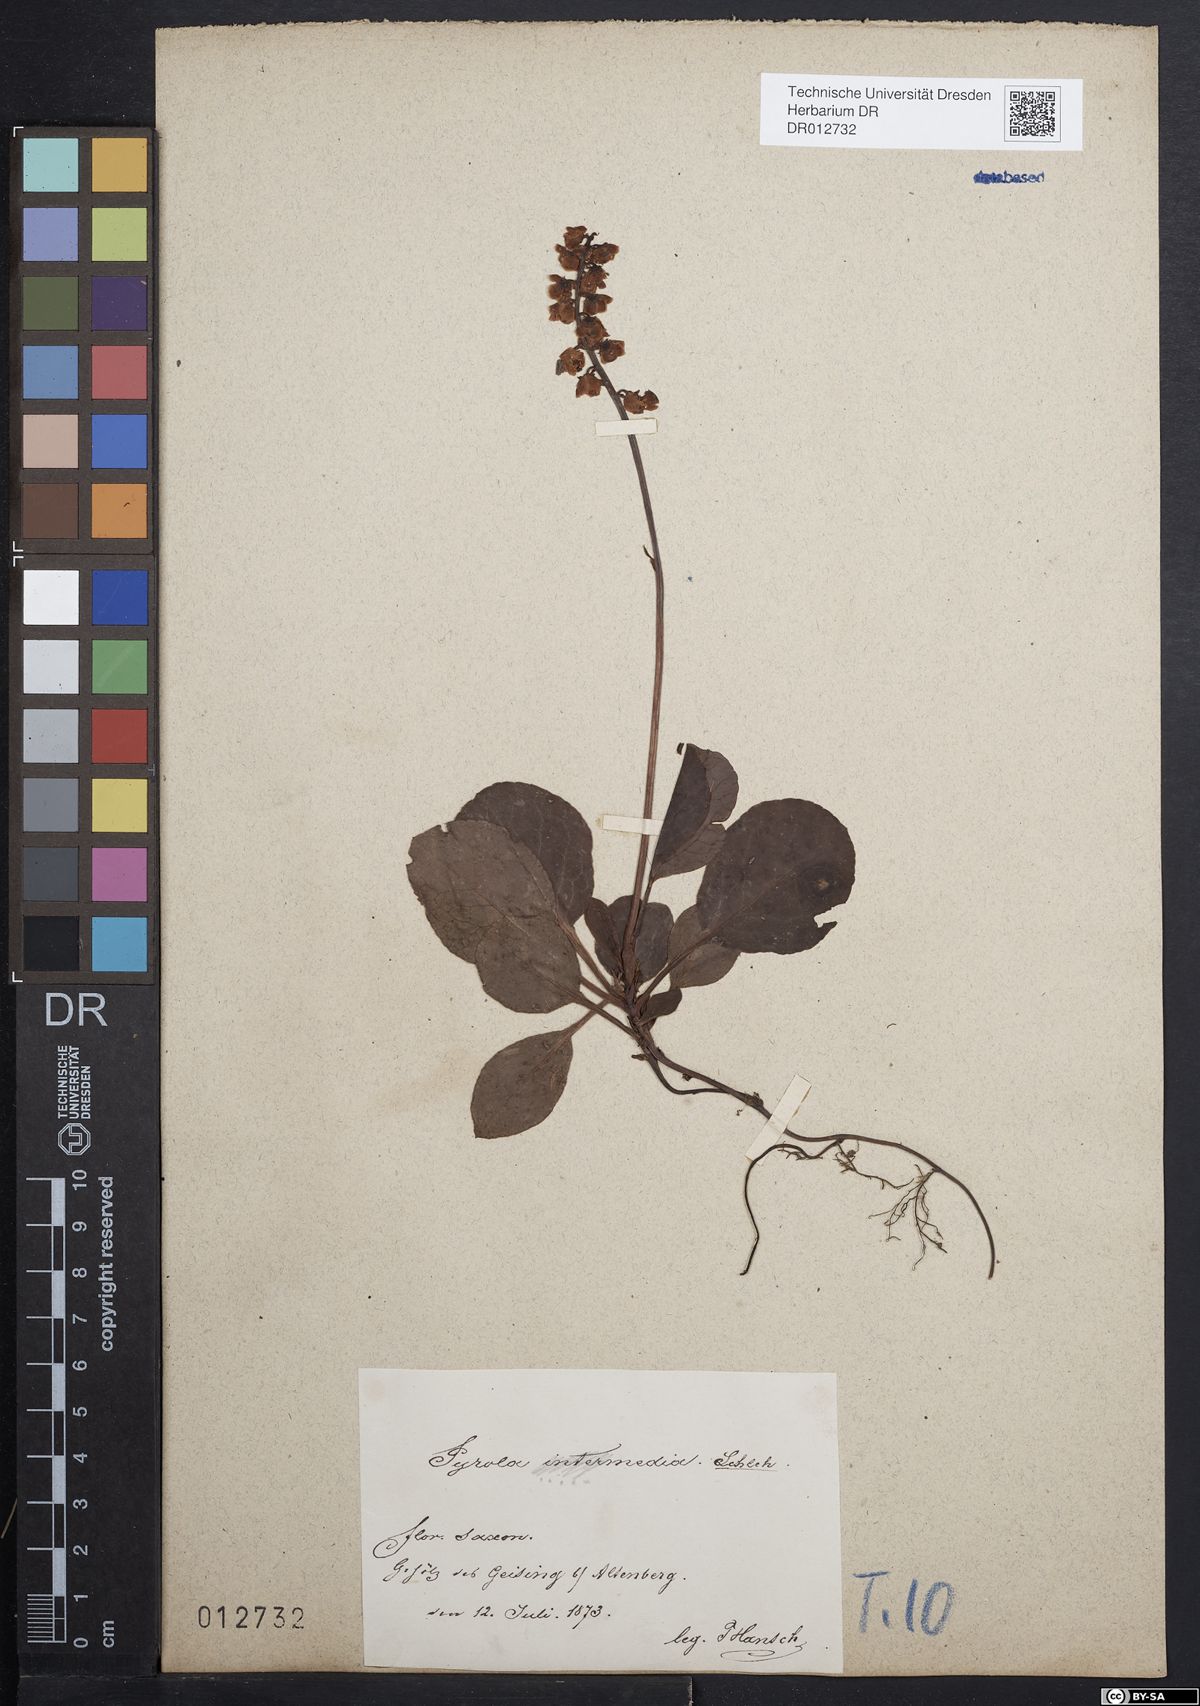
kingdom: Plantae
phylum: Tracheophyta
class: Magnoliopsida
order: Ericales
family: Ericaceae
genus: Pyrola
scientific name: Pyrola minor
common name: Common wintergreen
